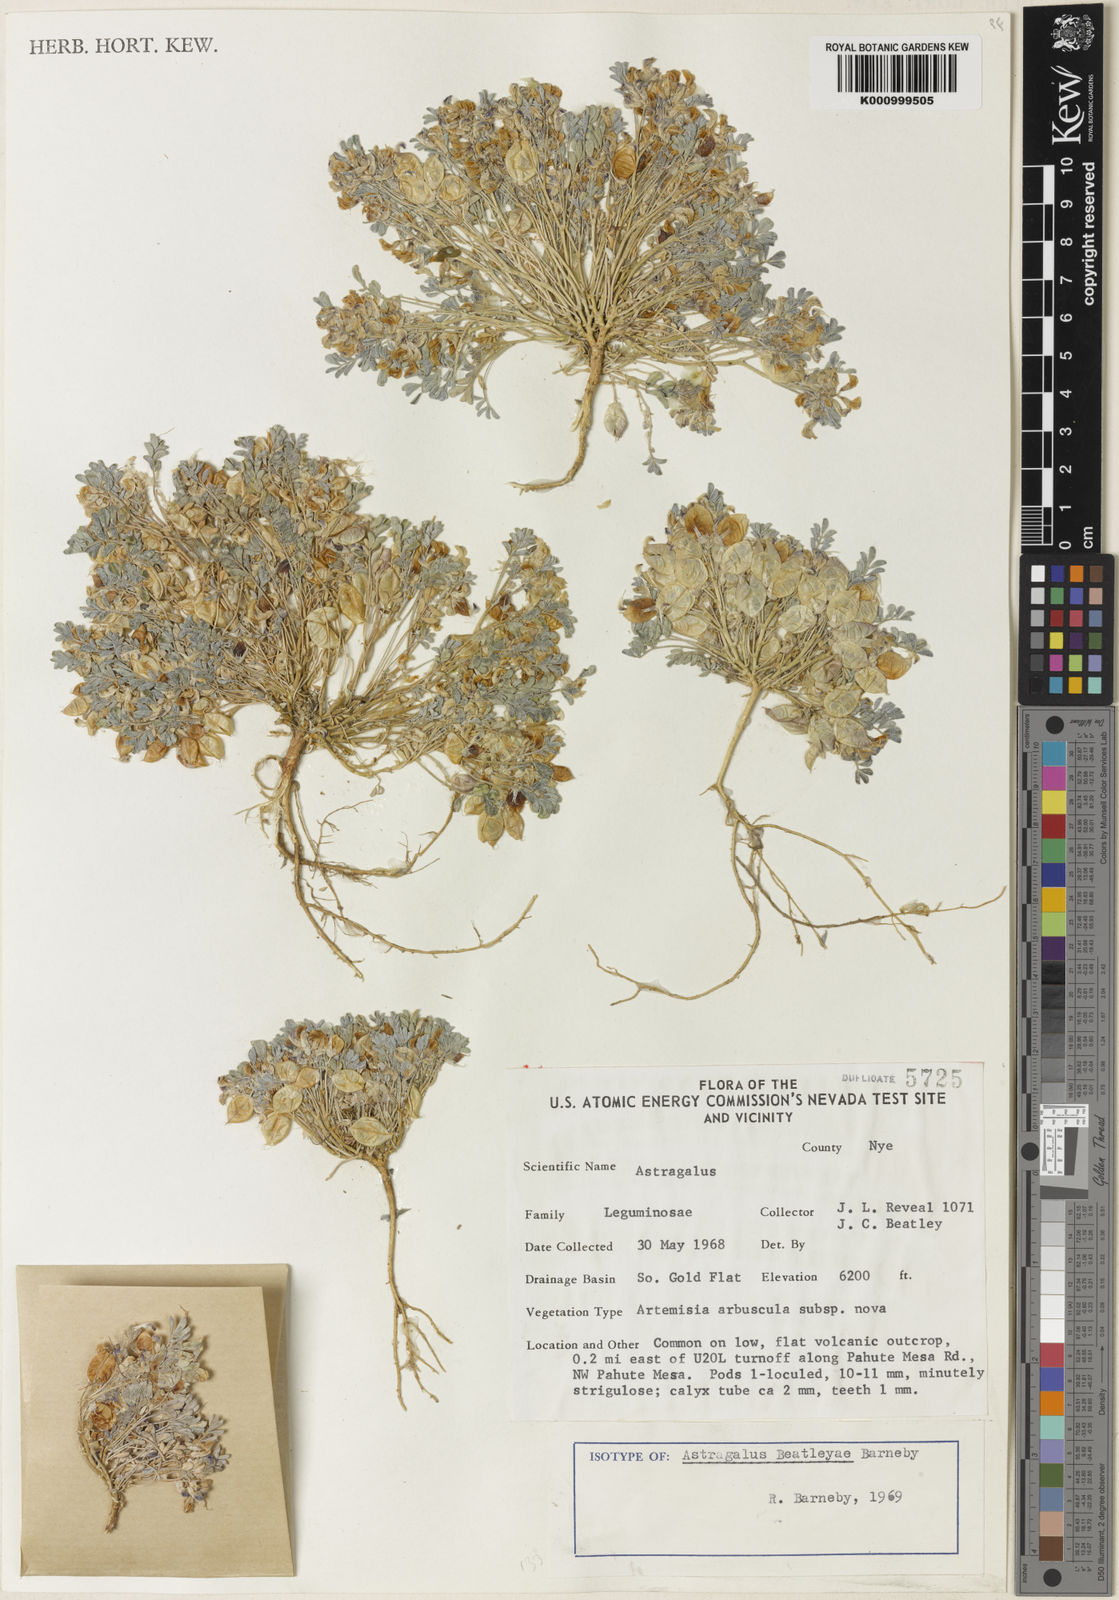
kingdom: Plantae
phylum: Tracheophyta
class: Magnoliopsida
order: Fabales
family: Fabaceae
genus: Astragalus
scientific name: Astragalus beatleyae
